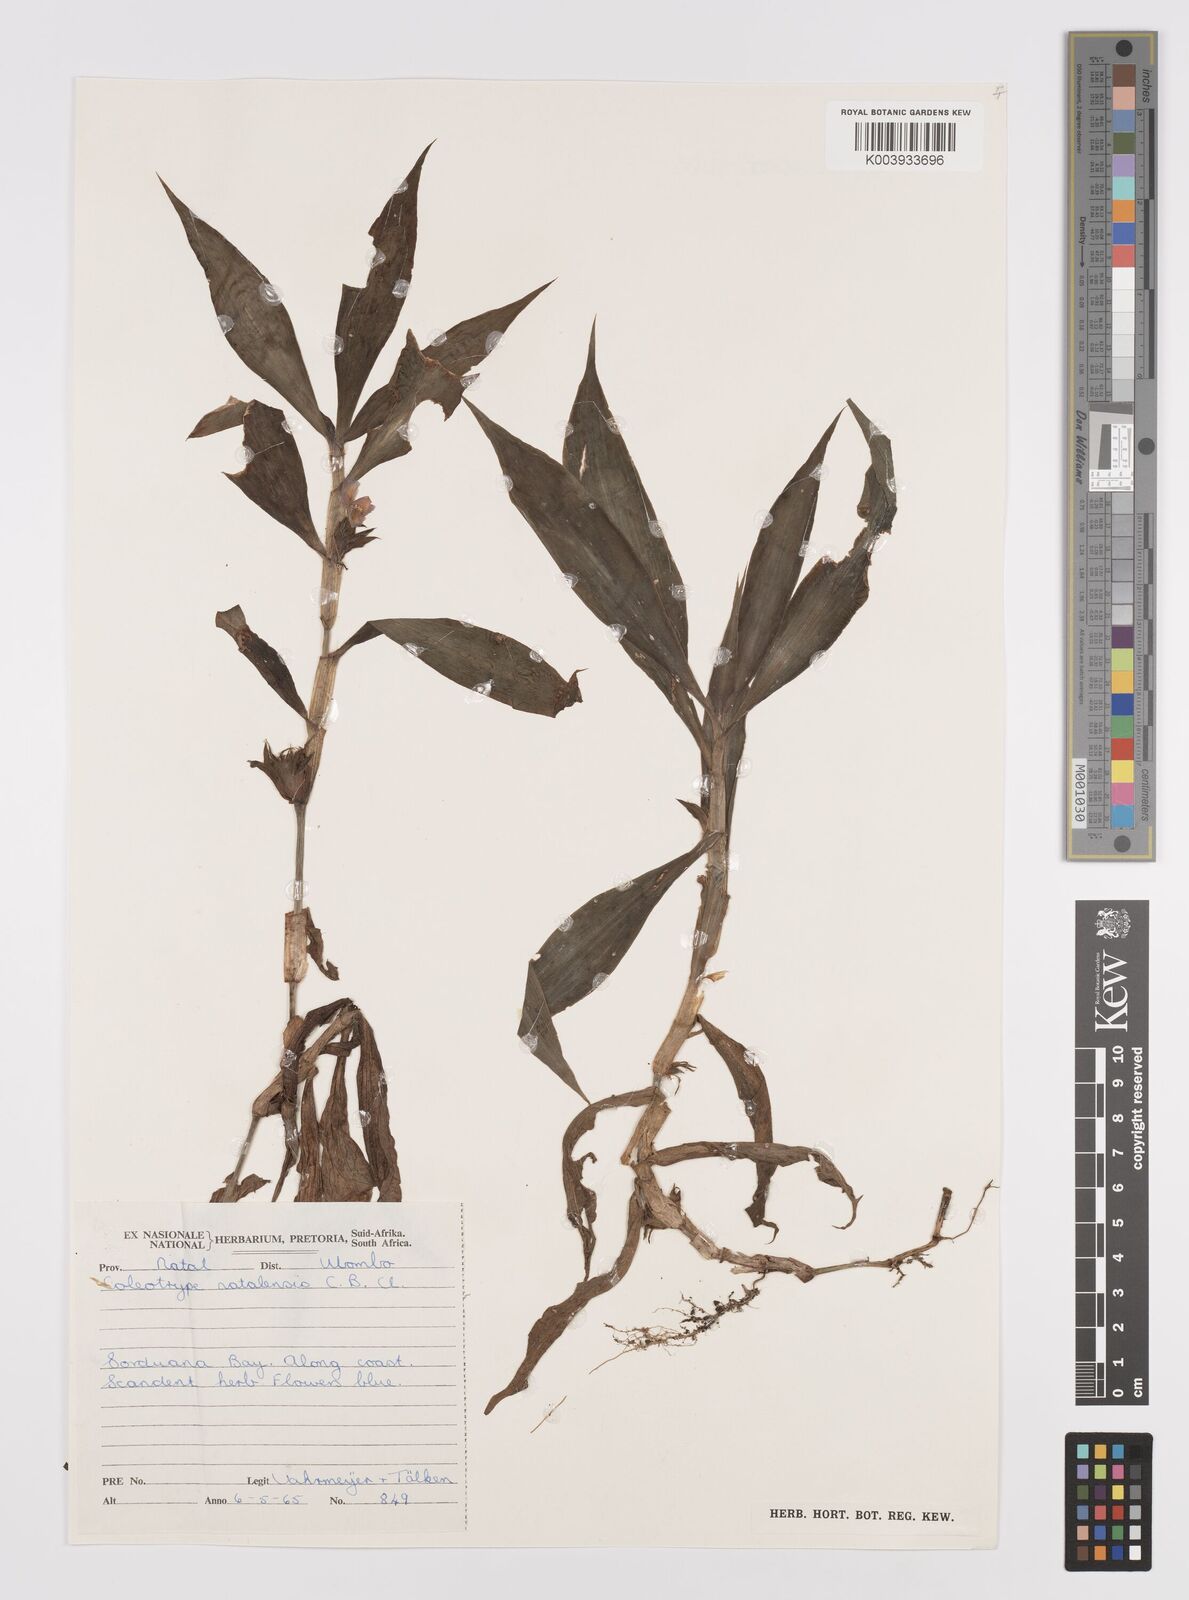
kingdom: Plantae
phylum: Tracheophyta
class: Liliopsida
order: Commelinales
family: Commelinaceae
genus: Coleotrype
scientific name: Coleotrype natalensis
